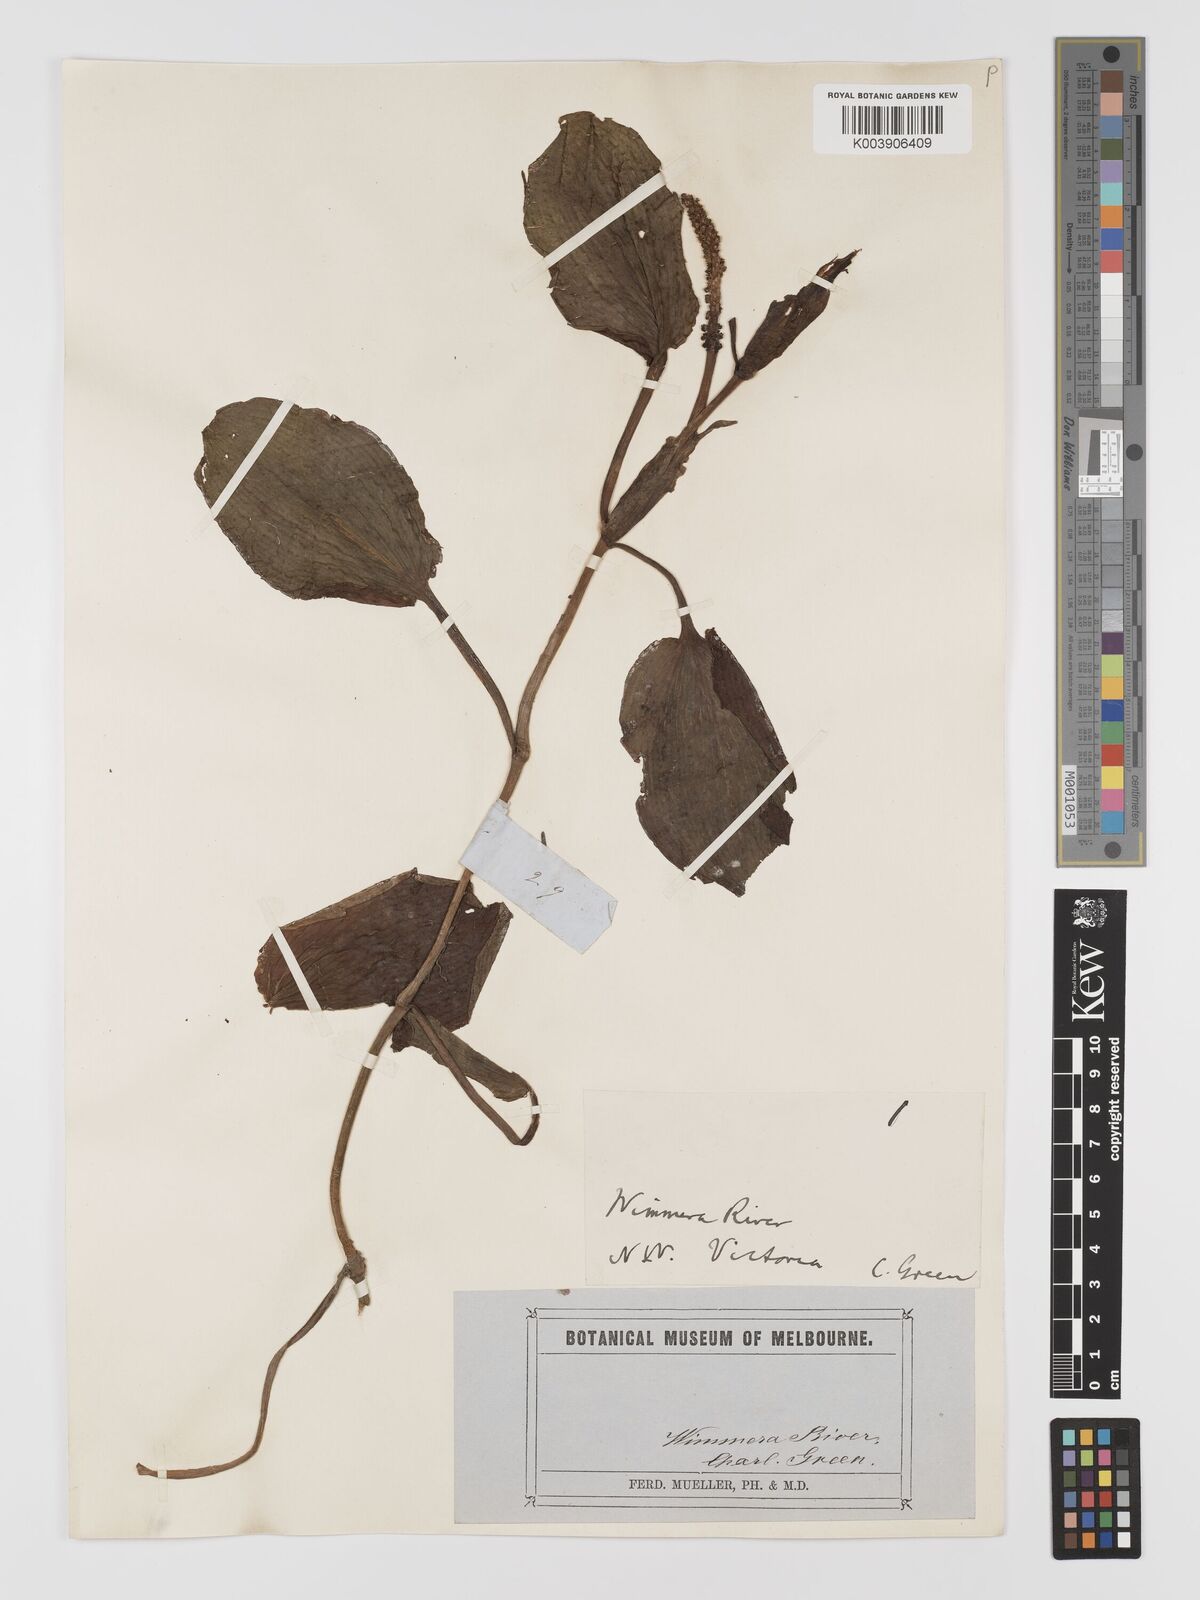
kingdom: Plantae
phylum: Tracheophyta
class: Liliopsida
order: Alismatales
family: Potamogetonaceae
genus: Potamogeton
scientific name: Potamogeton tricarinatus
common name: Pondweed
